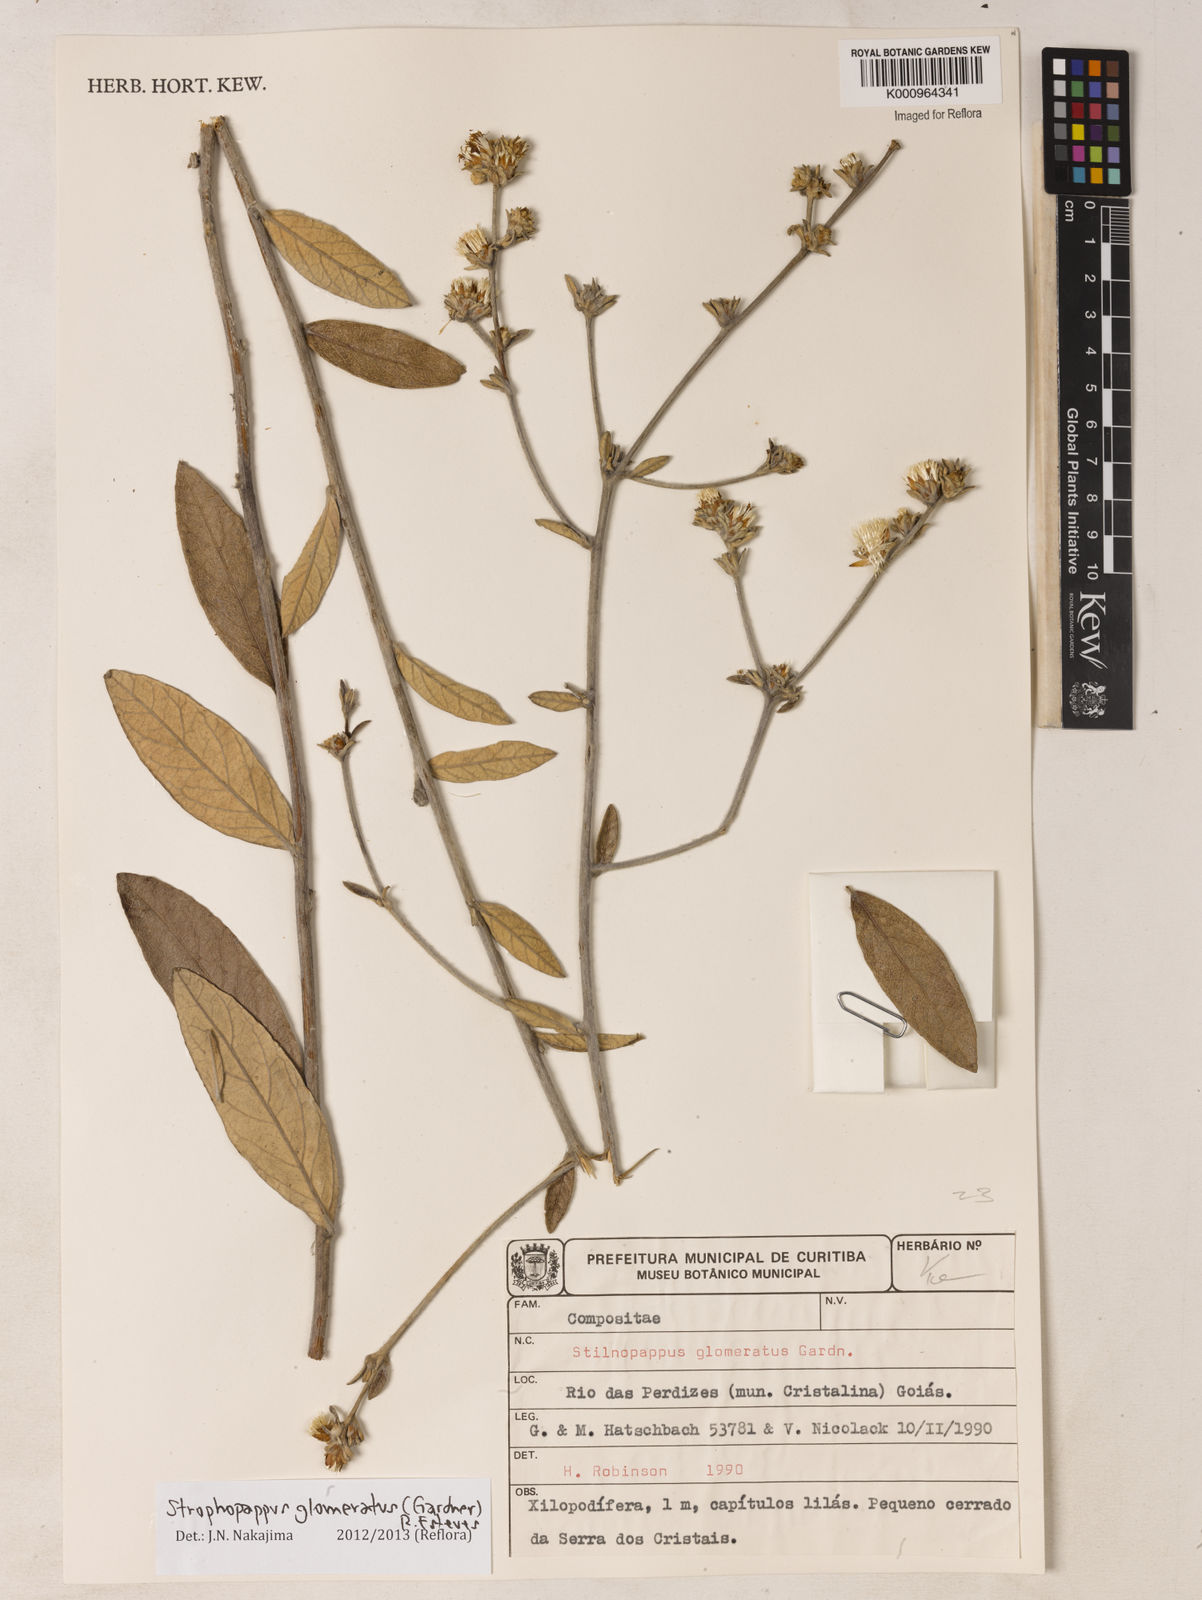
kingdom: Plantae
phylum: Tracheophyta
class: Magnoliopsida
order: Asterales
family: Asteraceae
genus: Stilpnopappus
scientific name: Stilpnopappus glomeratus
